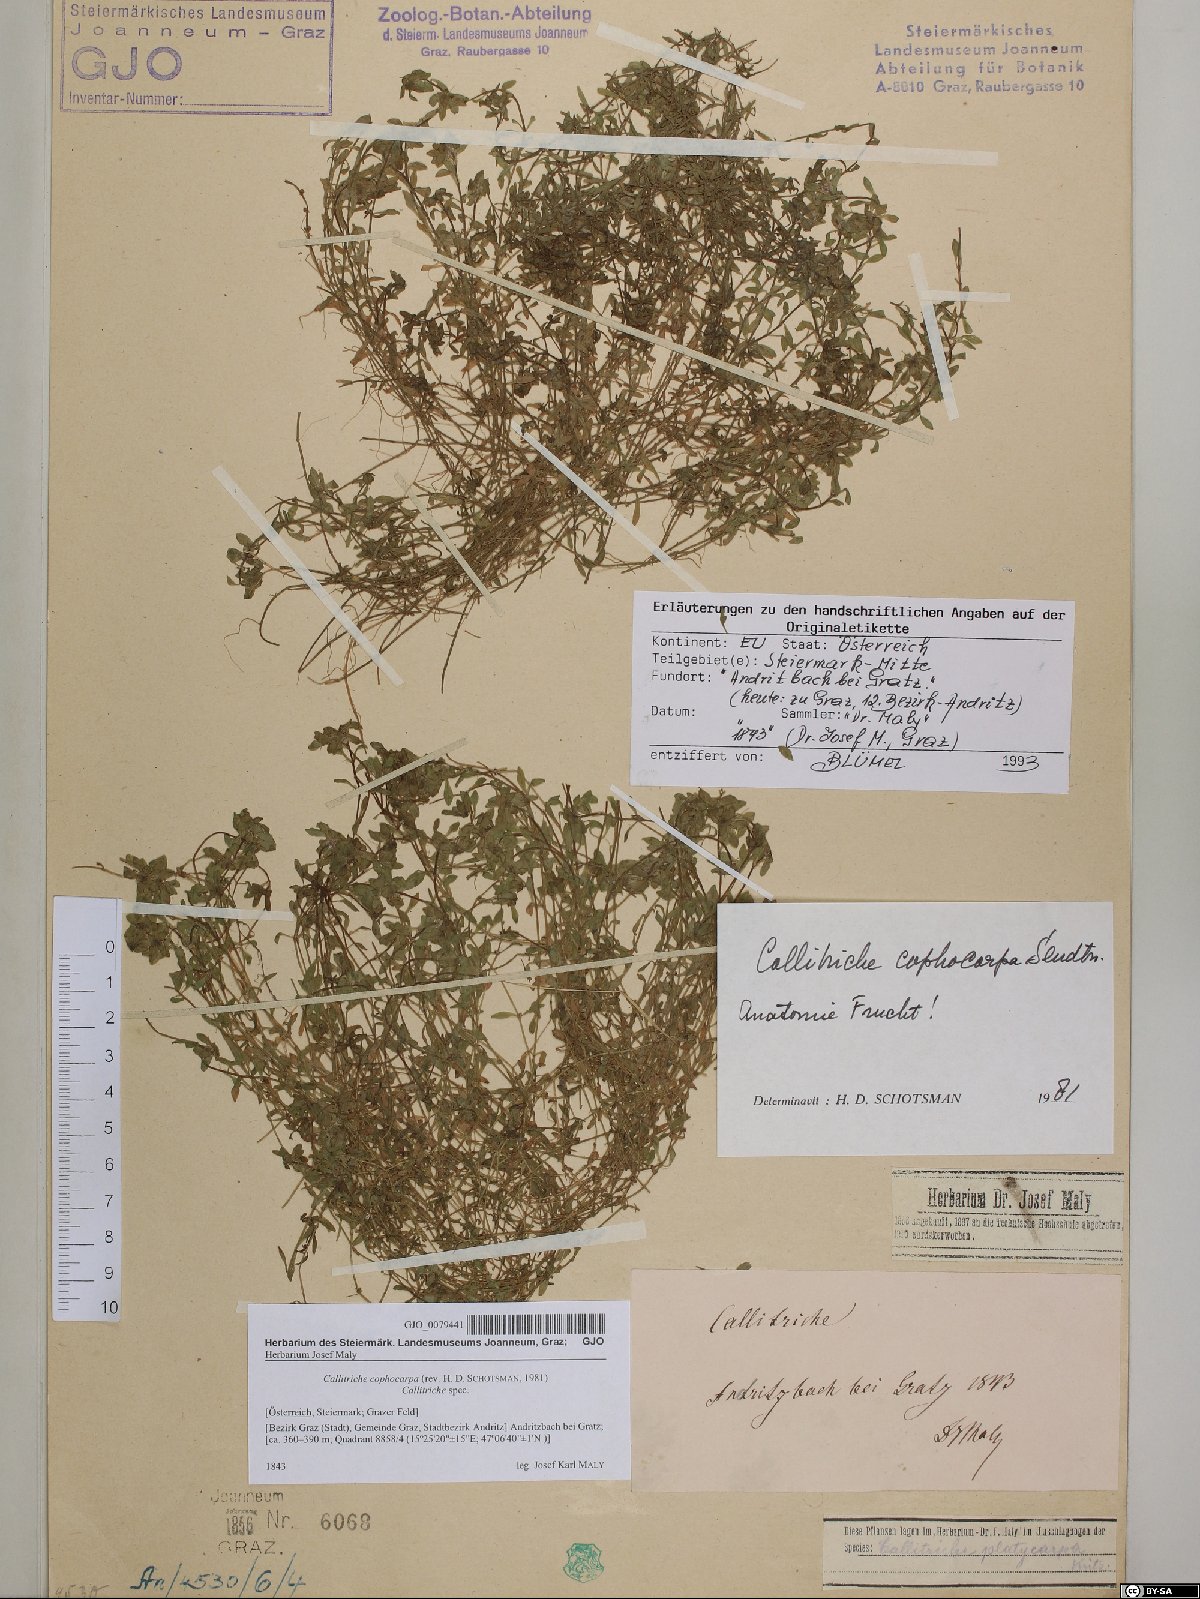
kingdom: Plantae
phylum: Tracheophyta
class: Magnoliopsida
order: Lamiales
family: Plantaginaceae
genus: Callitriche
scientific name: Callitriche cophocarpa
